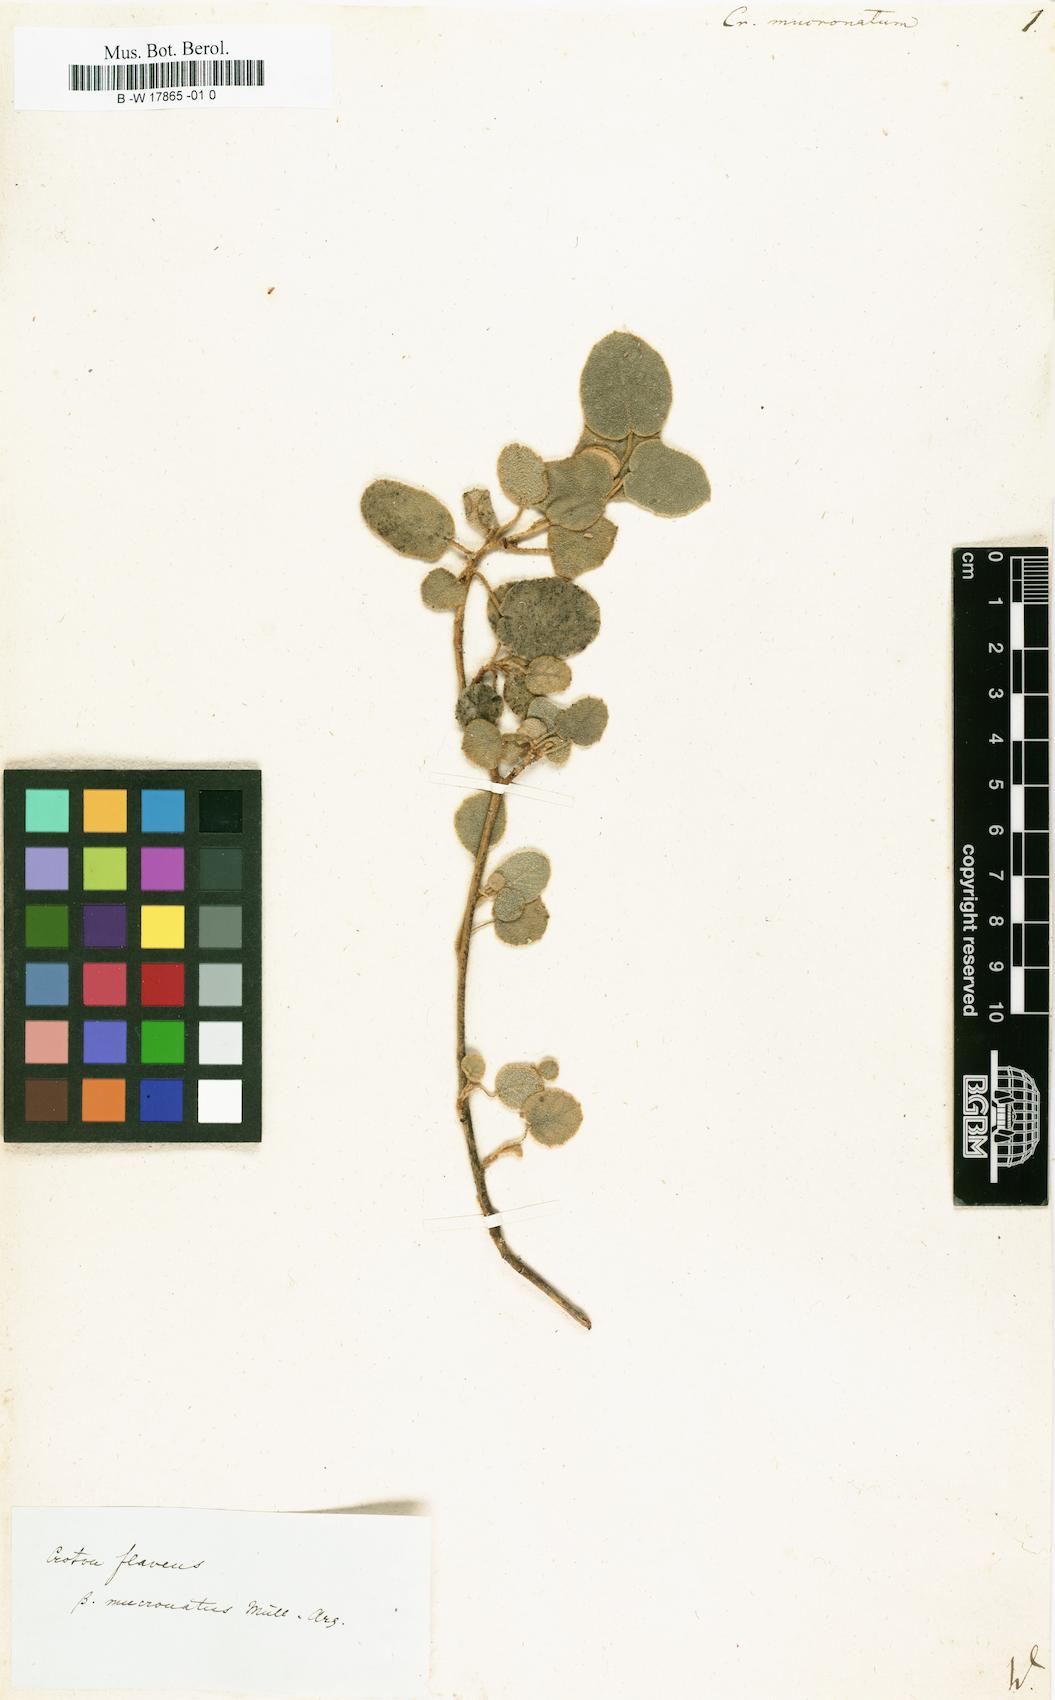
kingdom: Plantae
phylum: Tracheophyta
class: Magnoliopsida
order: Malpighiales
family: Euphorbiaceae
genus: Croton
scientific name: Croton flavens
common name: Yellow balsam
